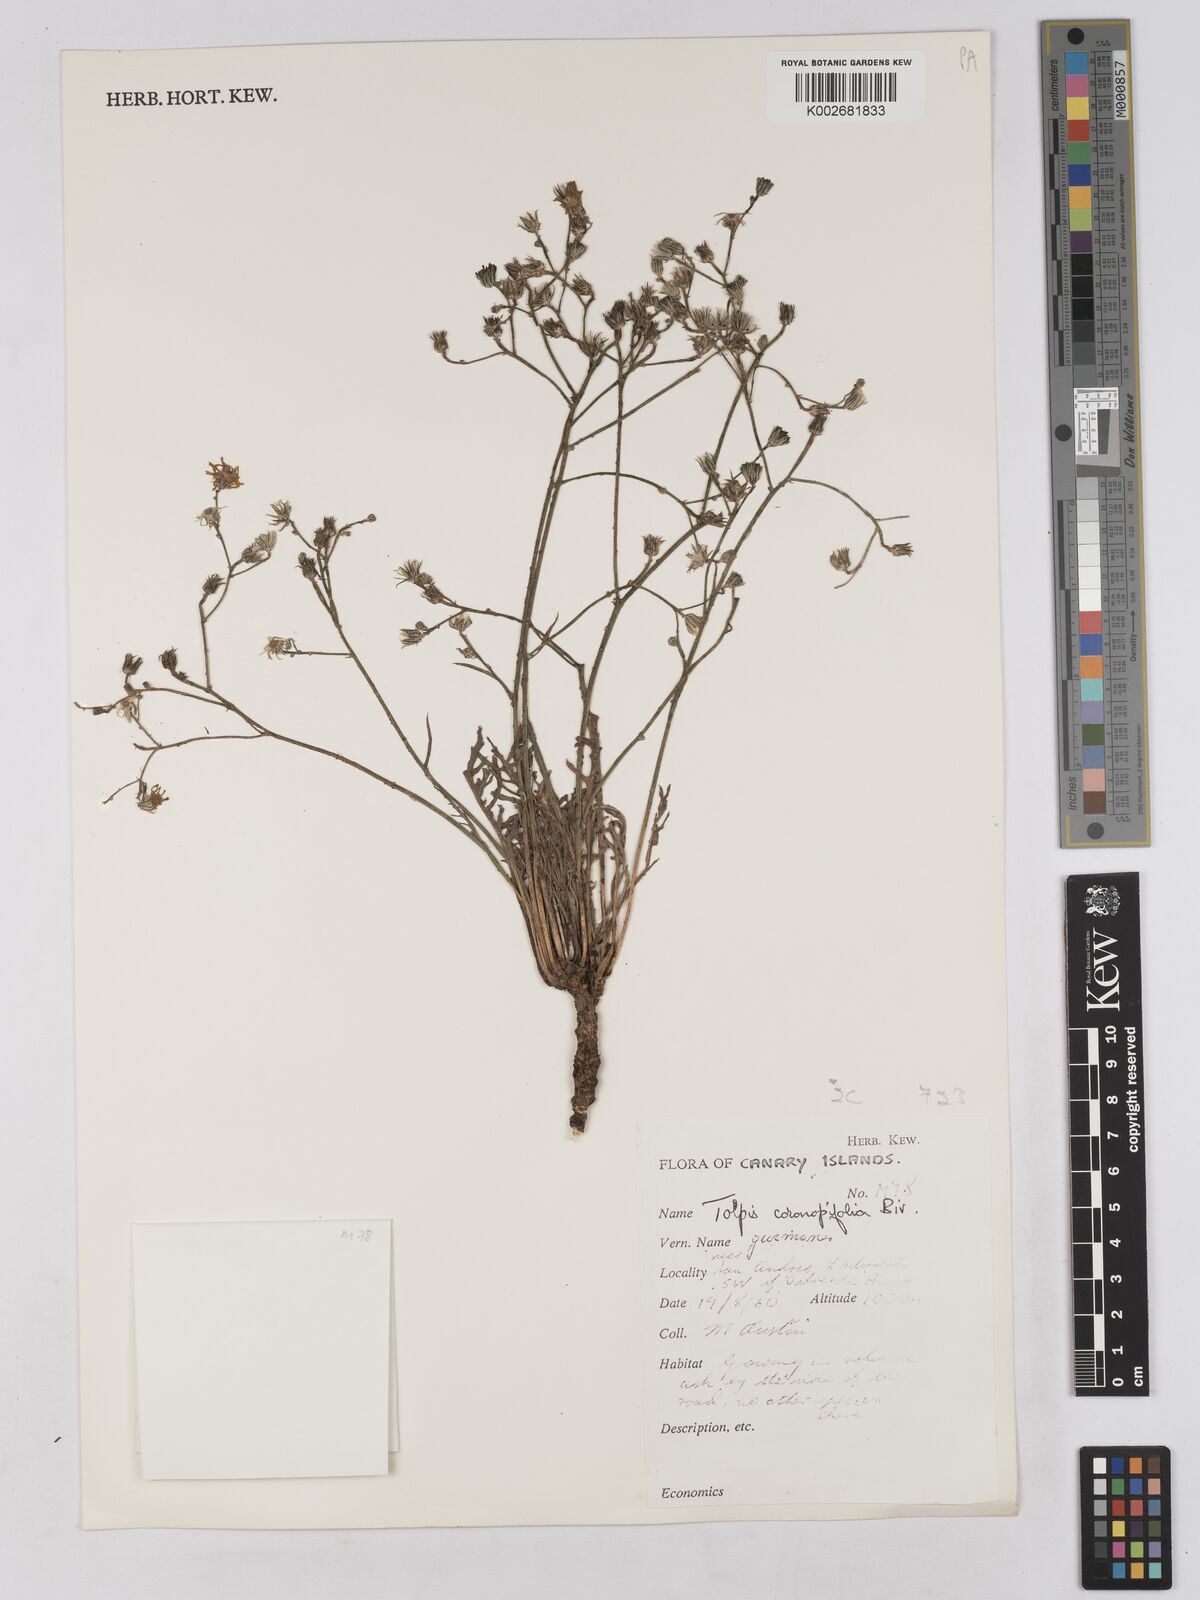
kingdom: Plantae
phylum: Tracheophyta
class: Magnoliopsida
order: Asterales
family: Asteraceae
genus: Tolpis
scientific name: Tolpis coronopifolia
